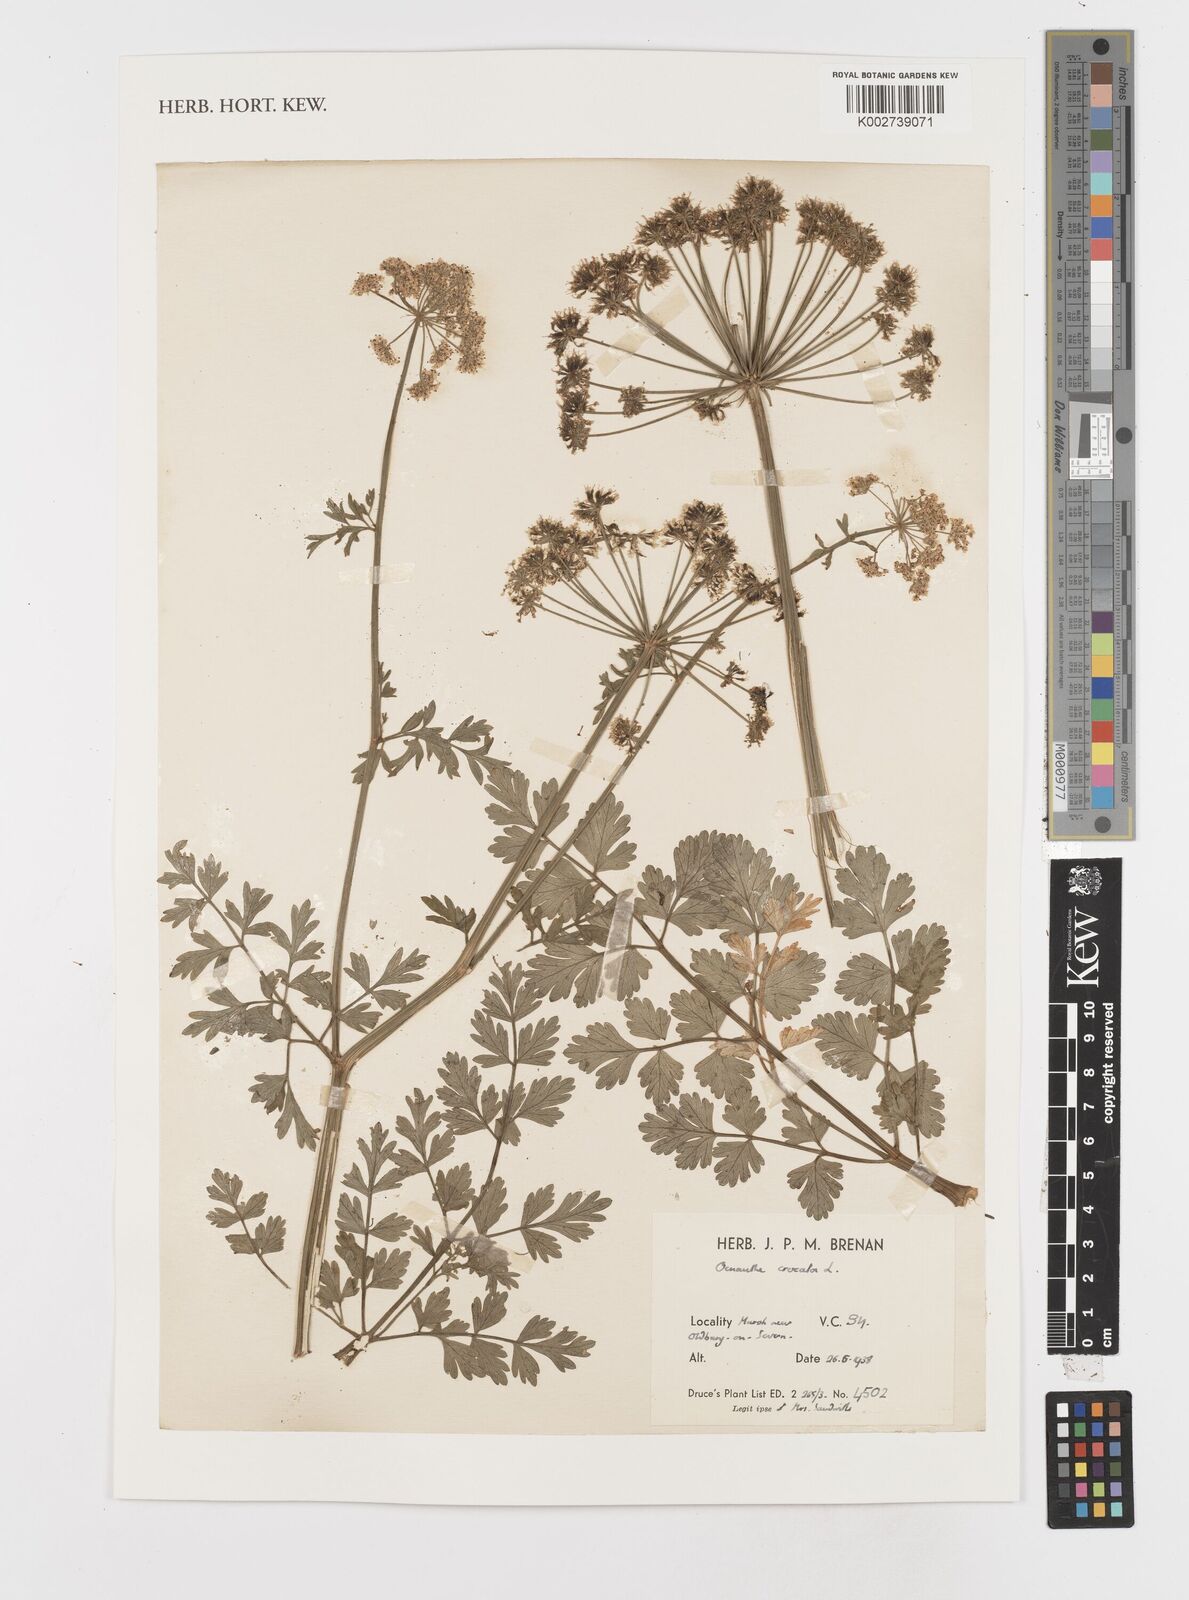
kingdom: Plantae
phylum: Tracheophyta
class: Magnoliopsida
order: Apiales
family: Apiaceae
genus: Oenanthe
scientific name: Oenanthe crocata
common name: Hemlock water-dropwort
